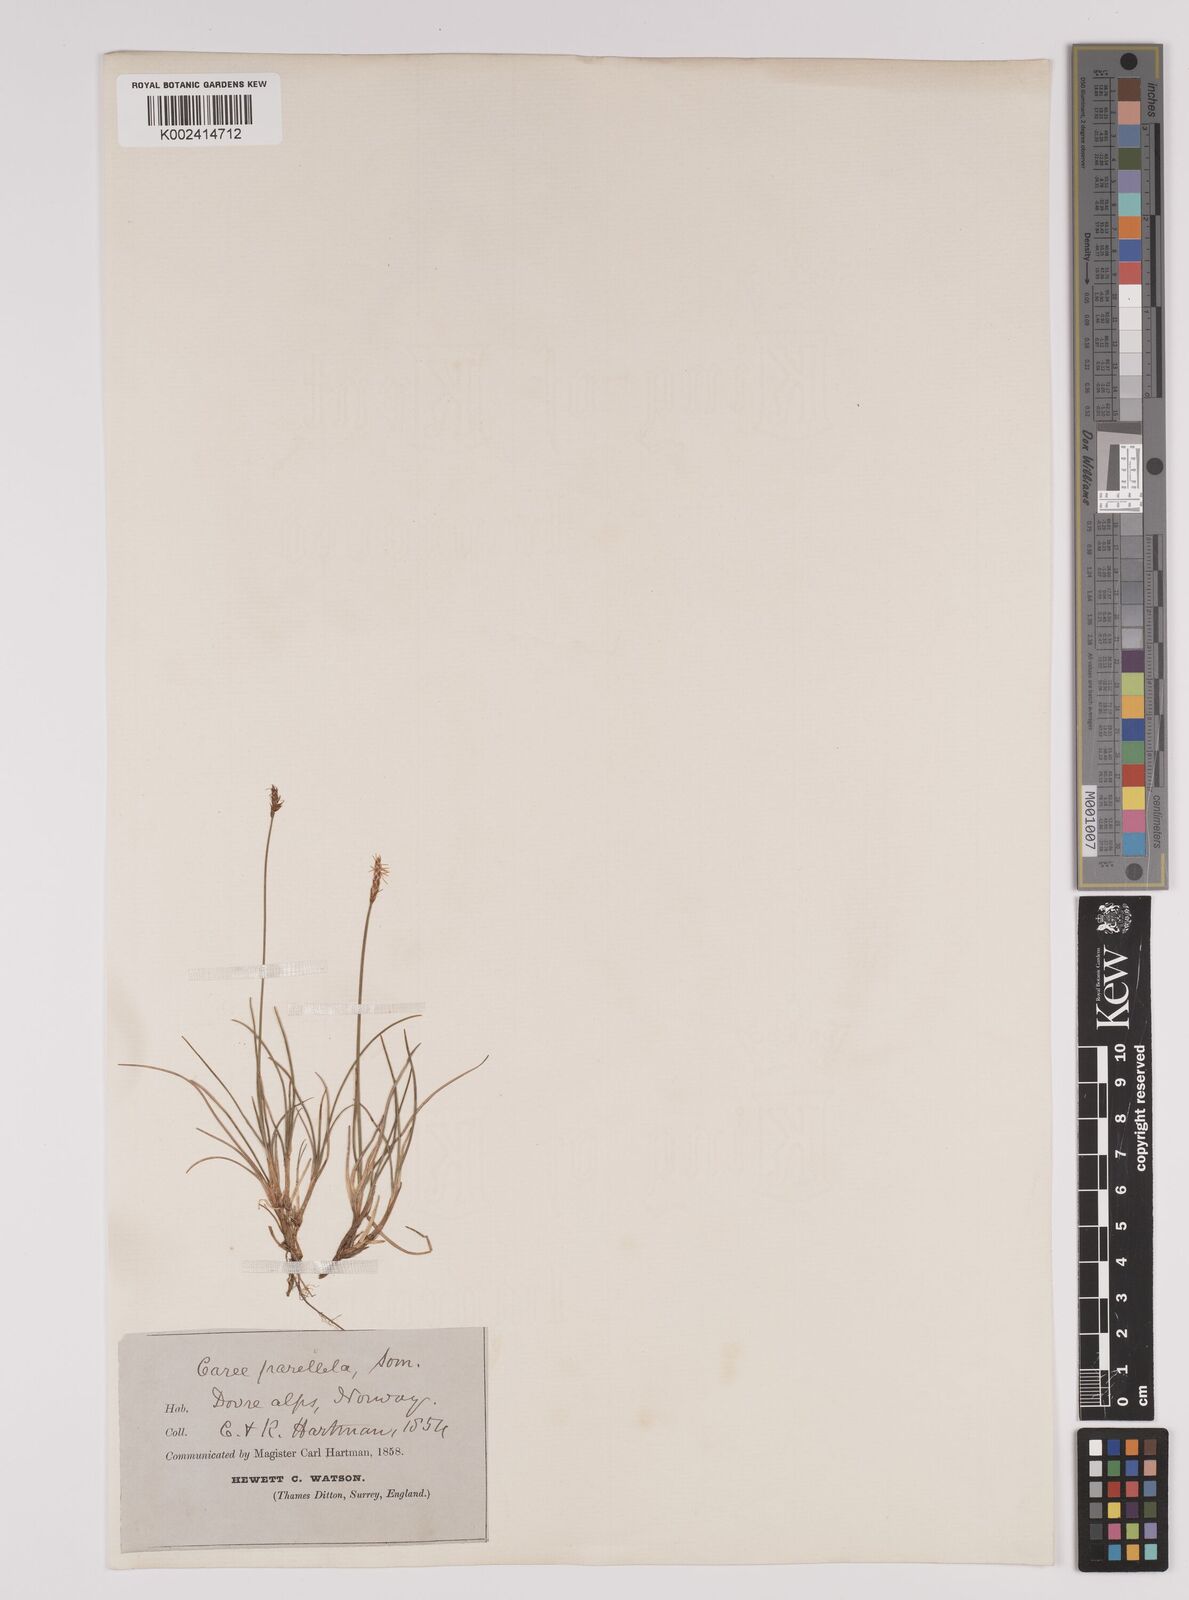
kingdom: Plantae
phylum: Tracheophyta
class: Liliopsida
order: Poales
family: Cyperaceae
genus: Carex
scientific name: Carex parallela
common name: Parallel sedge
